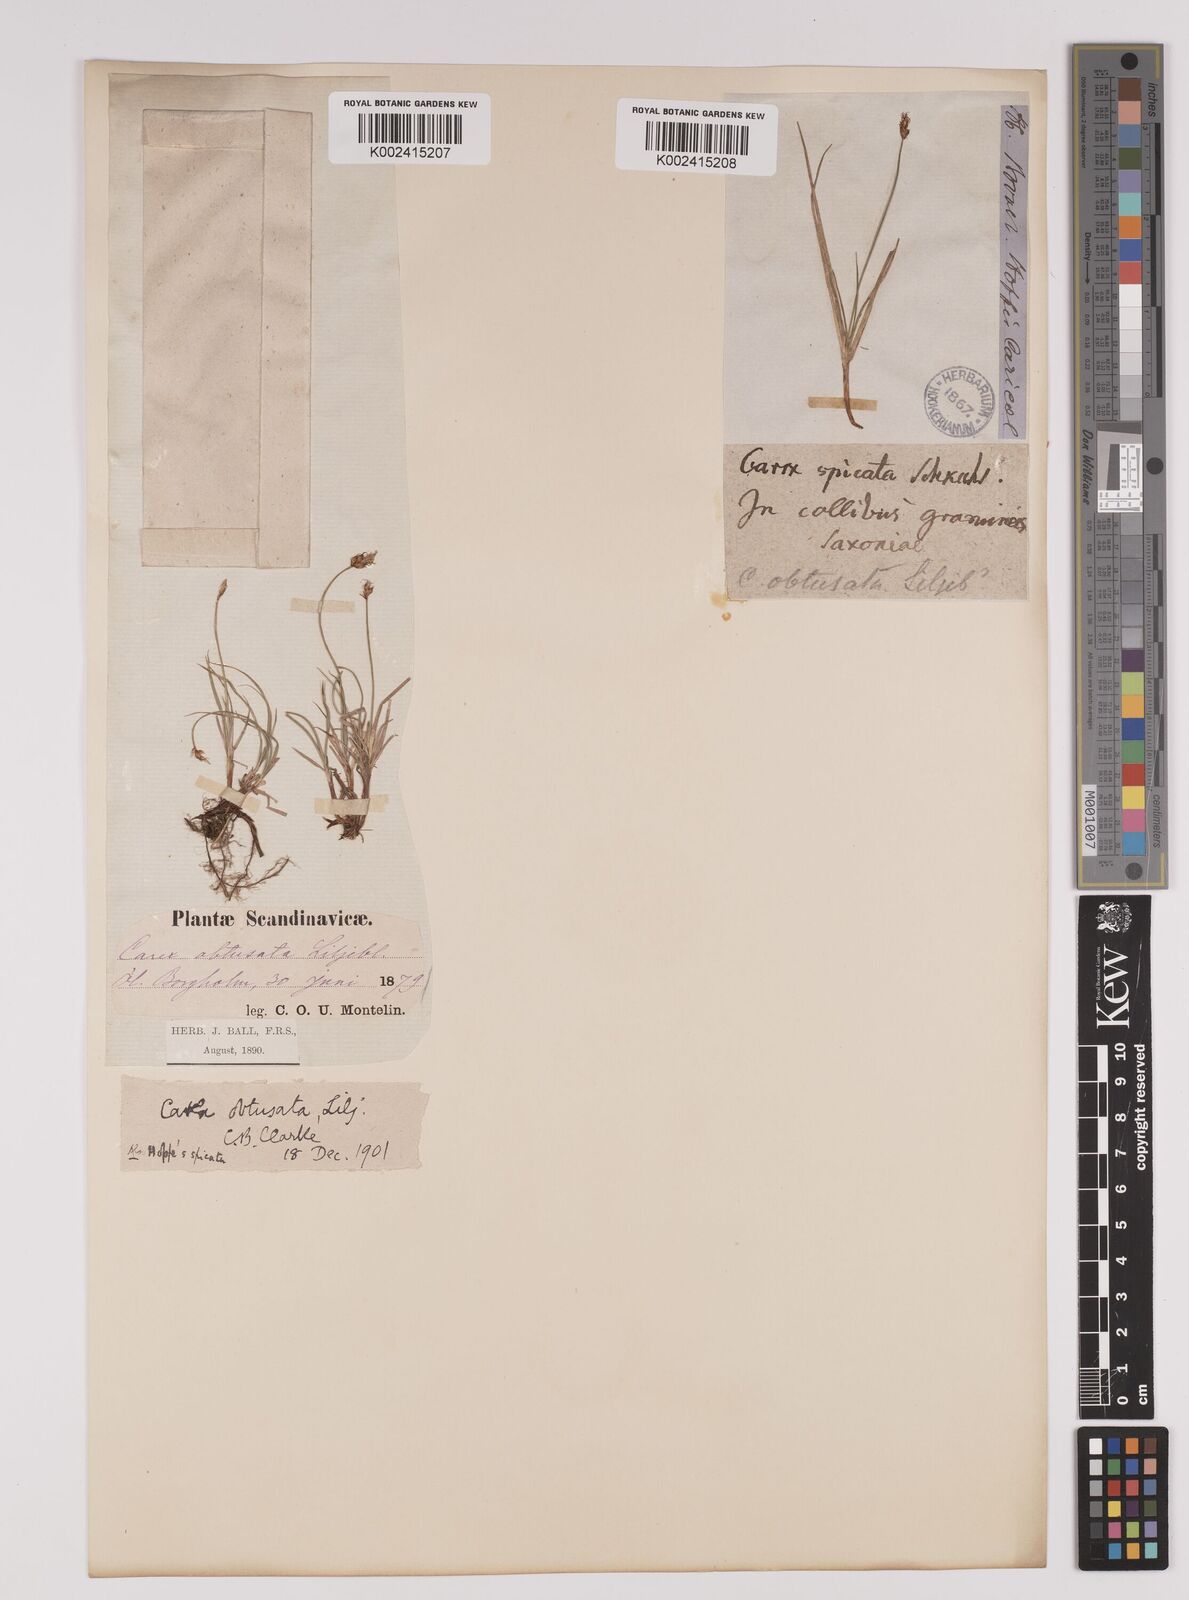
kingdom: Plantae
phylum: Tracheophyta
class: Liliopsida
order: Poales
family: Cyperaceae
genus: Carex
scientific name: Carex obtusata
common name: Blunt sedge
